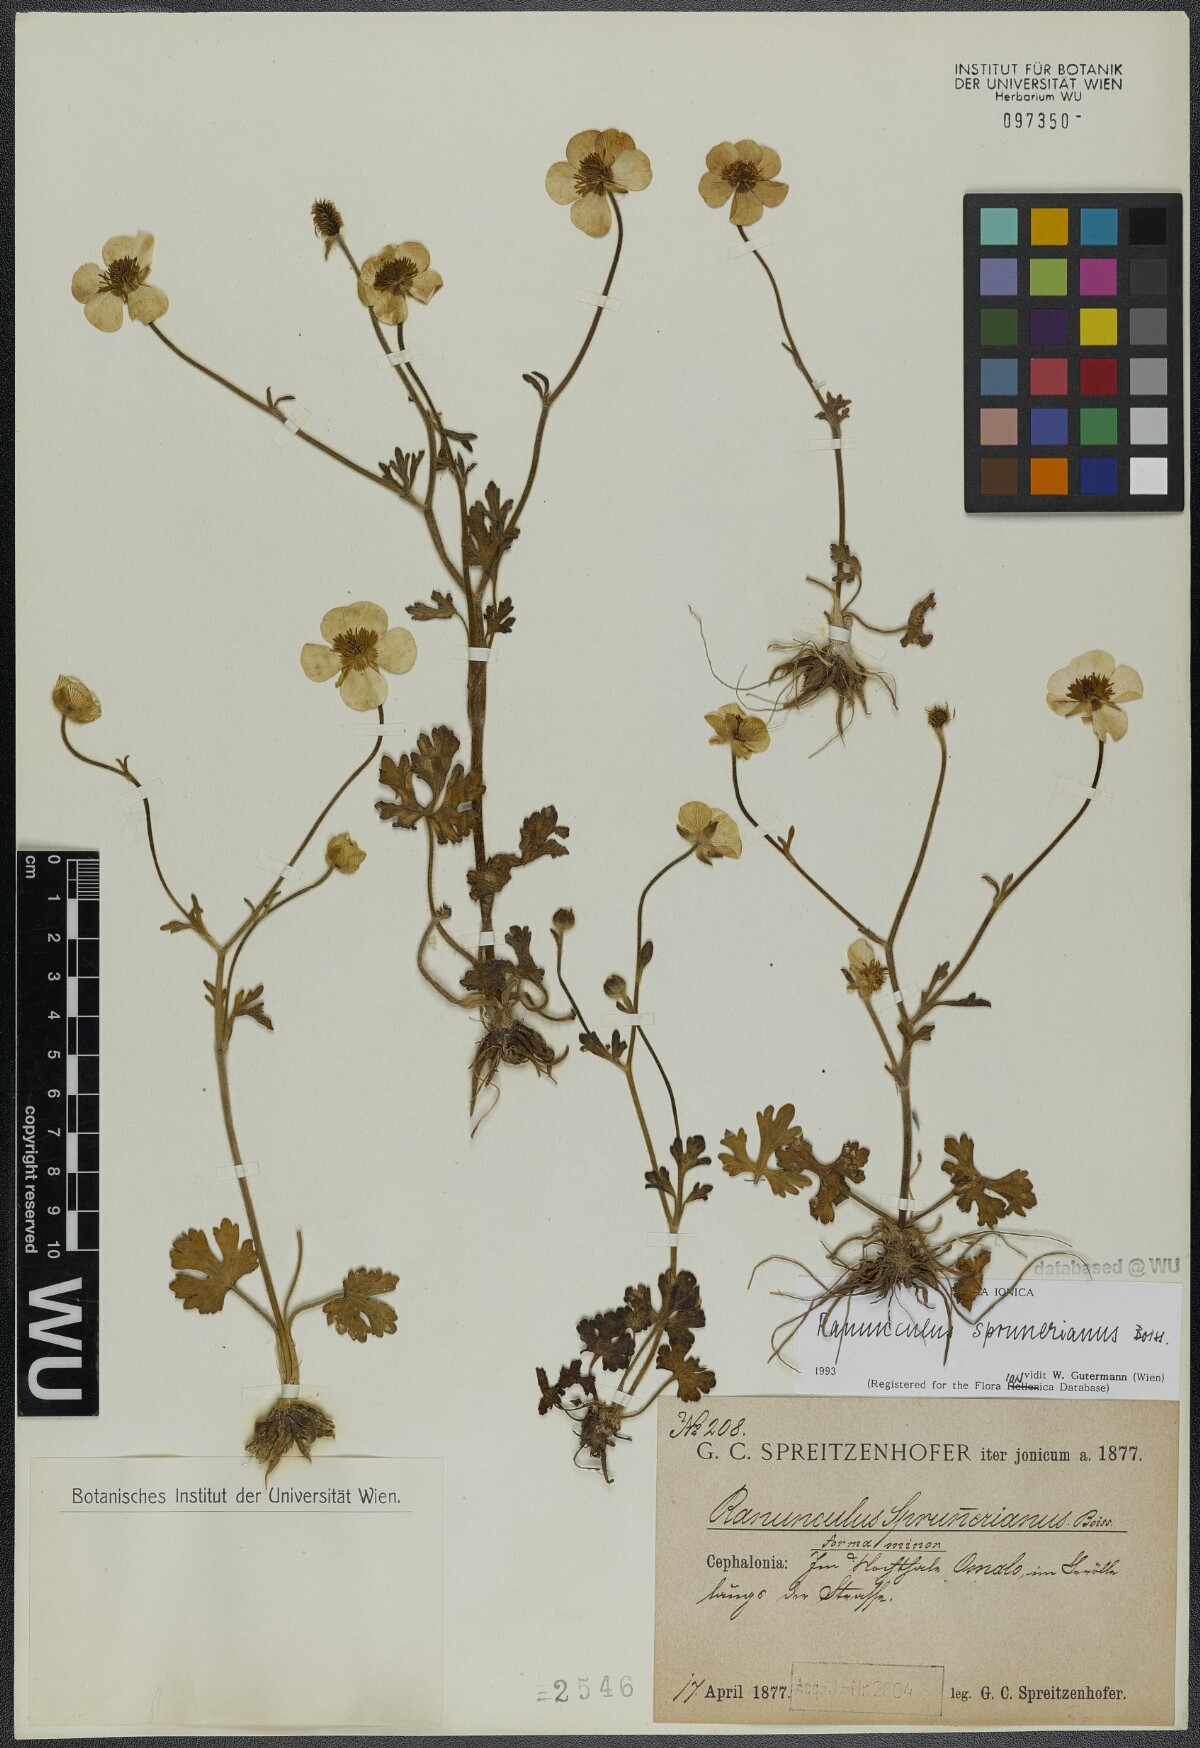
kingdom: Plantae
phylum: Tracheophyta
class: Magnoliopsida
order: Ranunculales
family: Ranunculaceae
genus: Ranunculus
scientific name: Ranunculus sprunerianus
